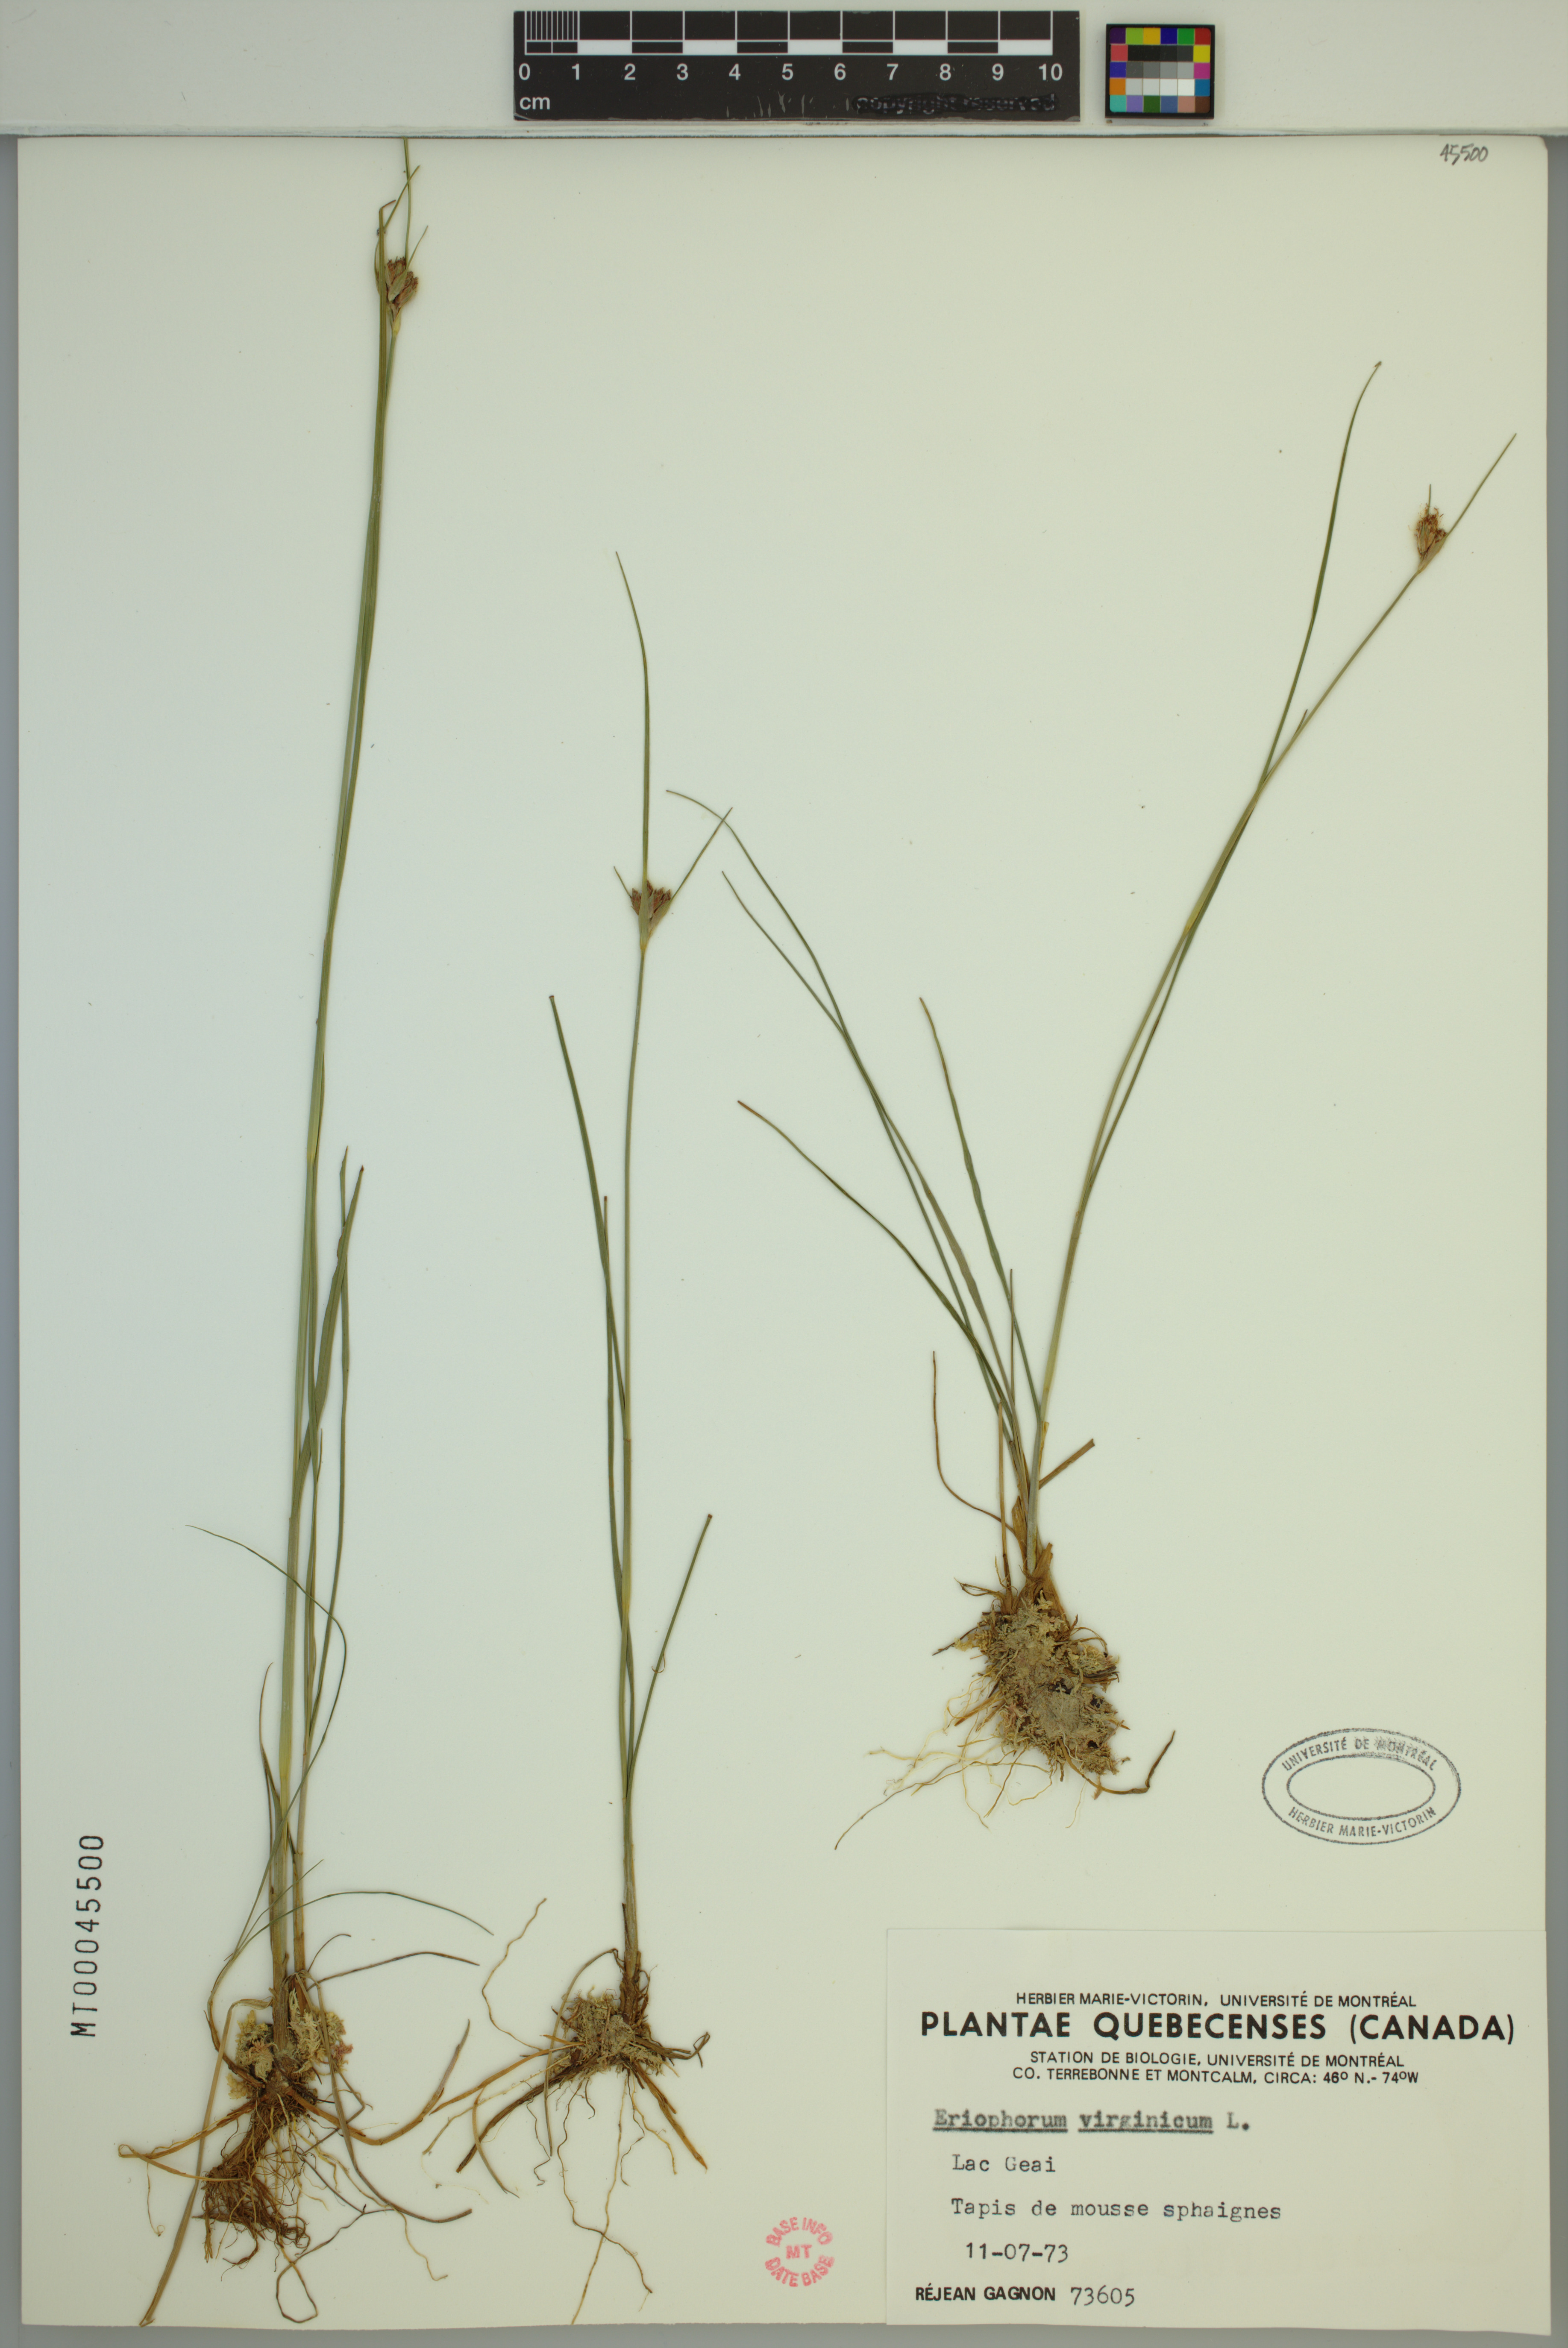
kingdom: Plantae
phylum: Tracheophyta
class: Liliopsida
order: Poales
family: Cyperaceae
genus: Eriophorum
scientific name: Eriophorum virginicum
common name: Tawny cottongrass
